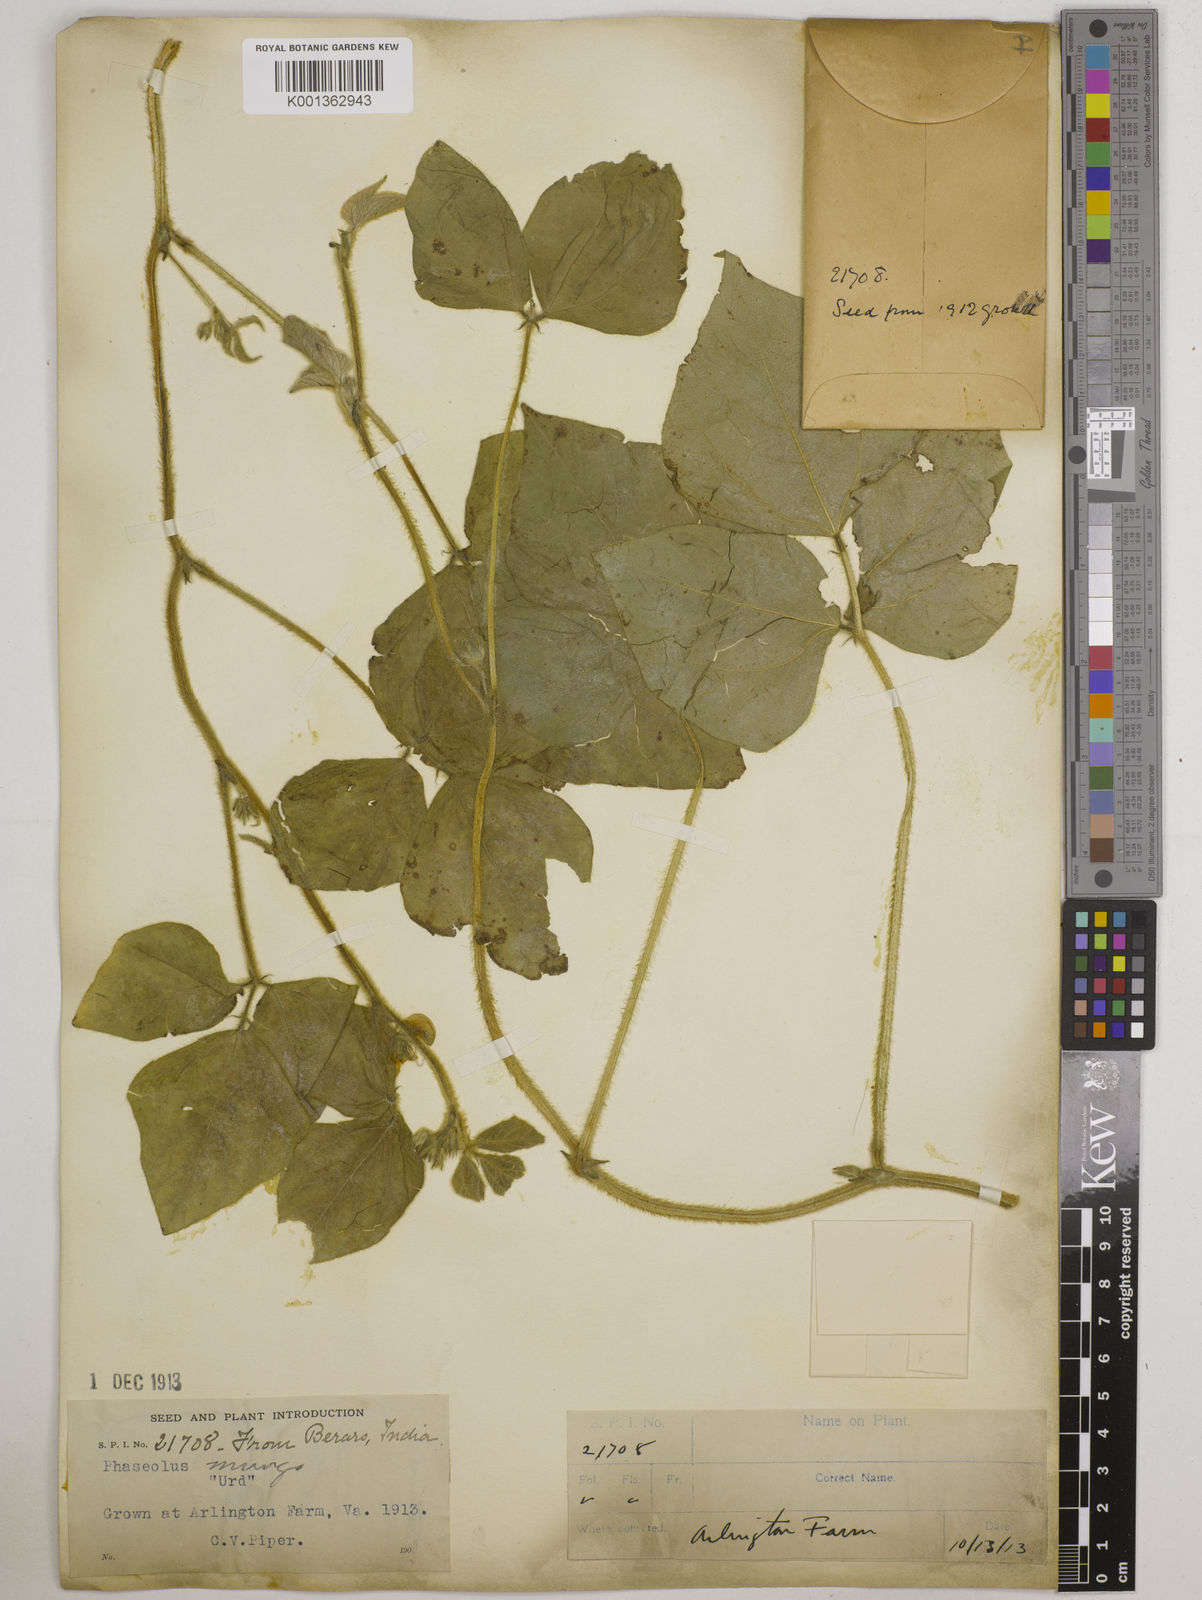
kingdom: Plantae
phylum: Tracheophyta
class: Magnoliopsida
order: Fabales
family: Fabaceae
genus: Vigna
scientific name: Vigna mungo
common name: Black gram
